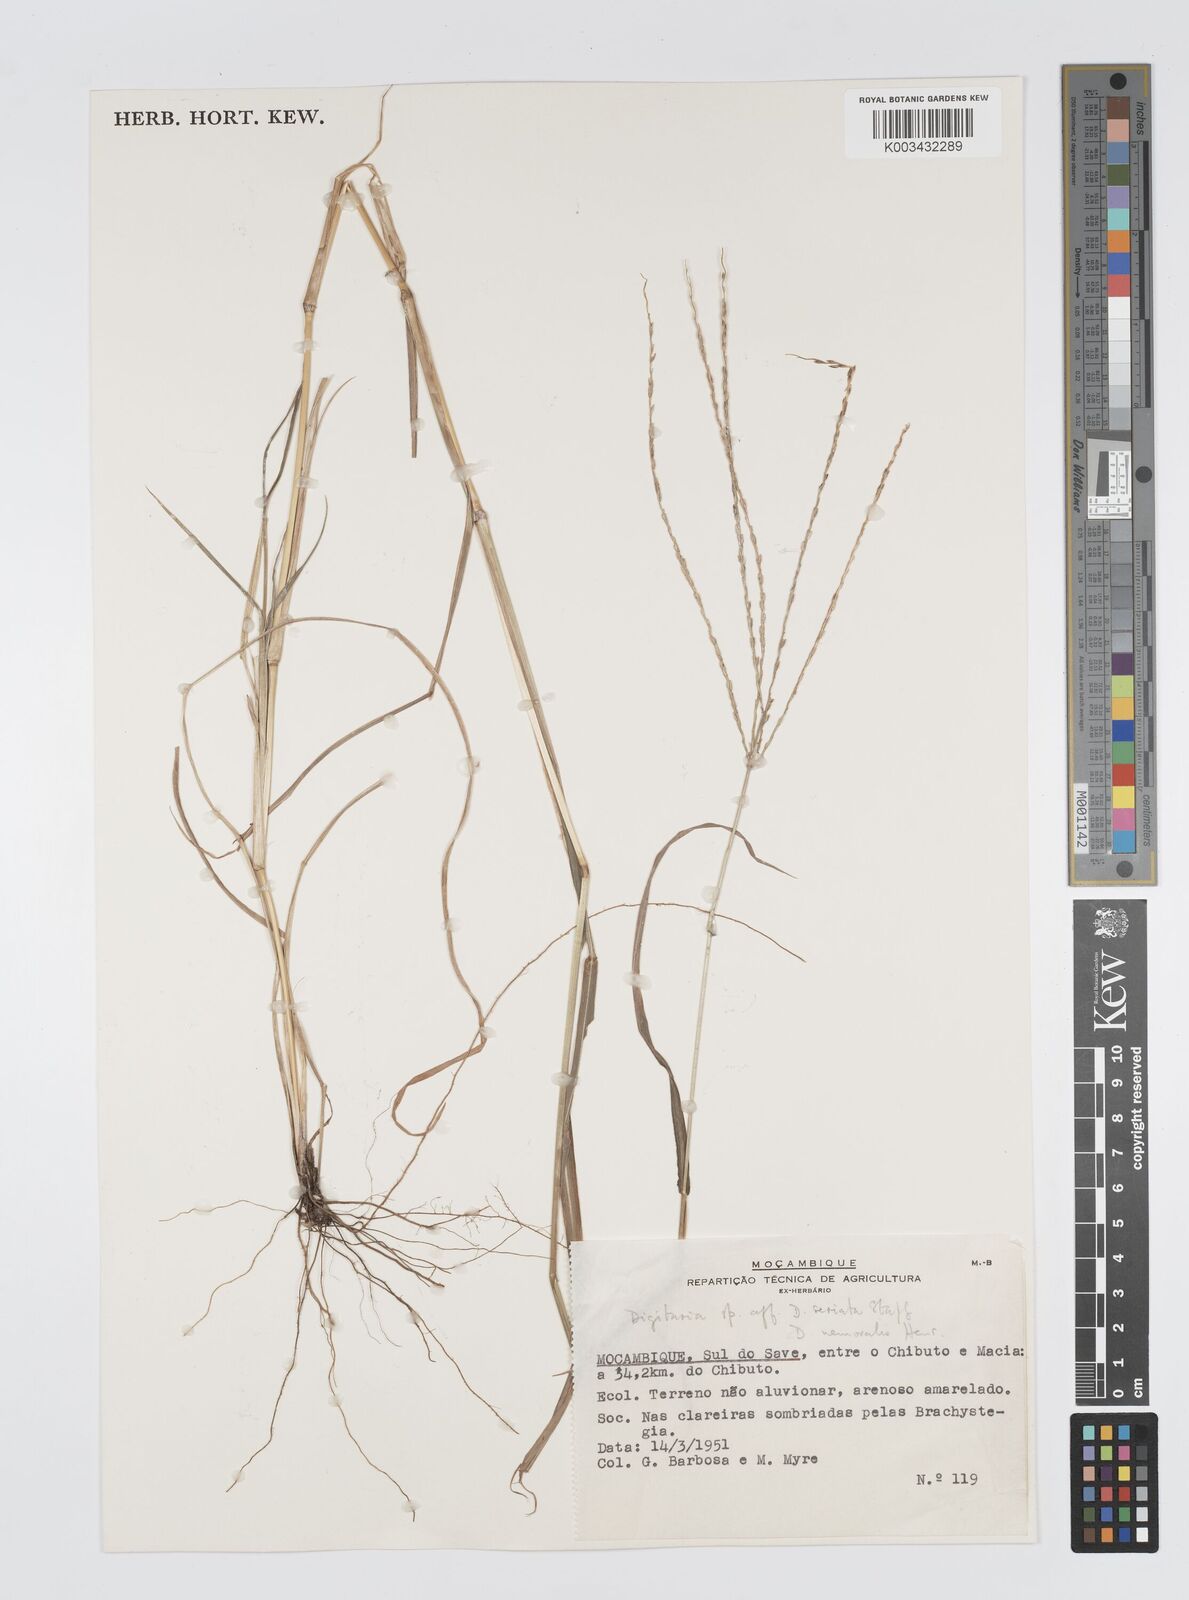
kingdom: Plantae
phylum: Tracheophyta
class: Liliopsida
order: Poales
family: Poaceae
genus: Digitaria
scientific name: Digitaria seriata
